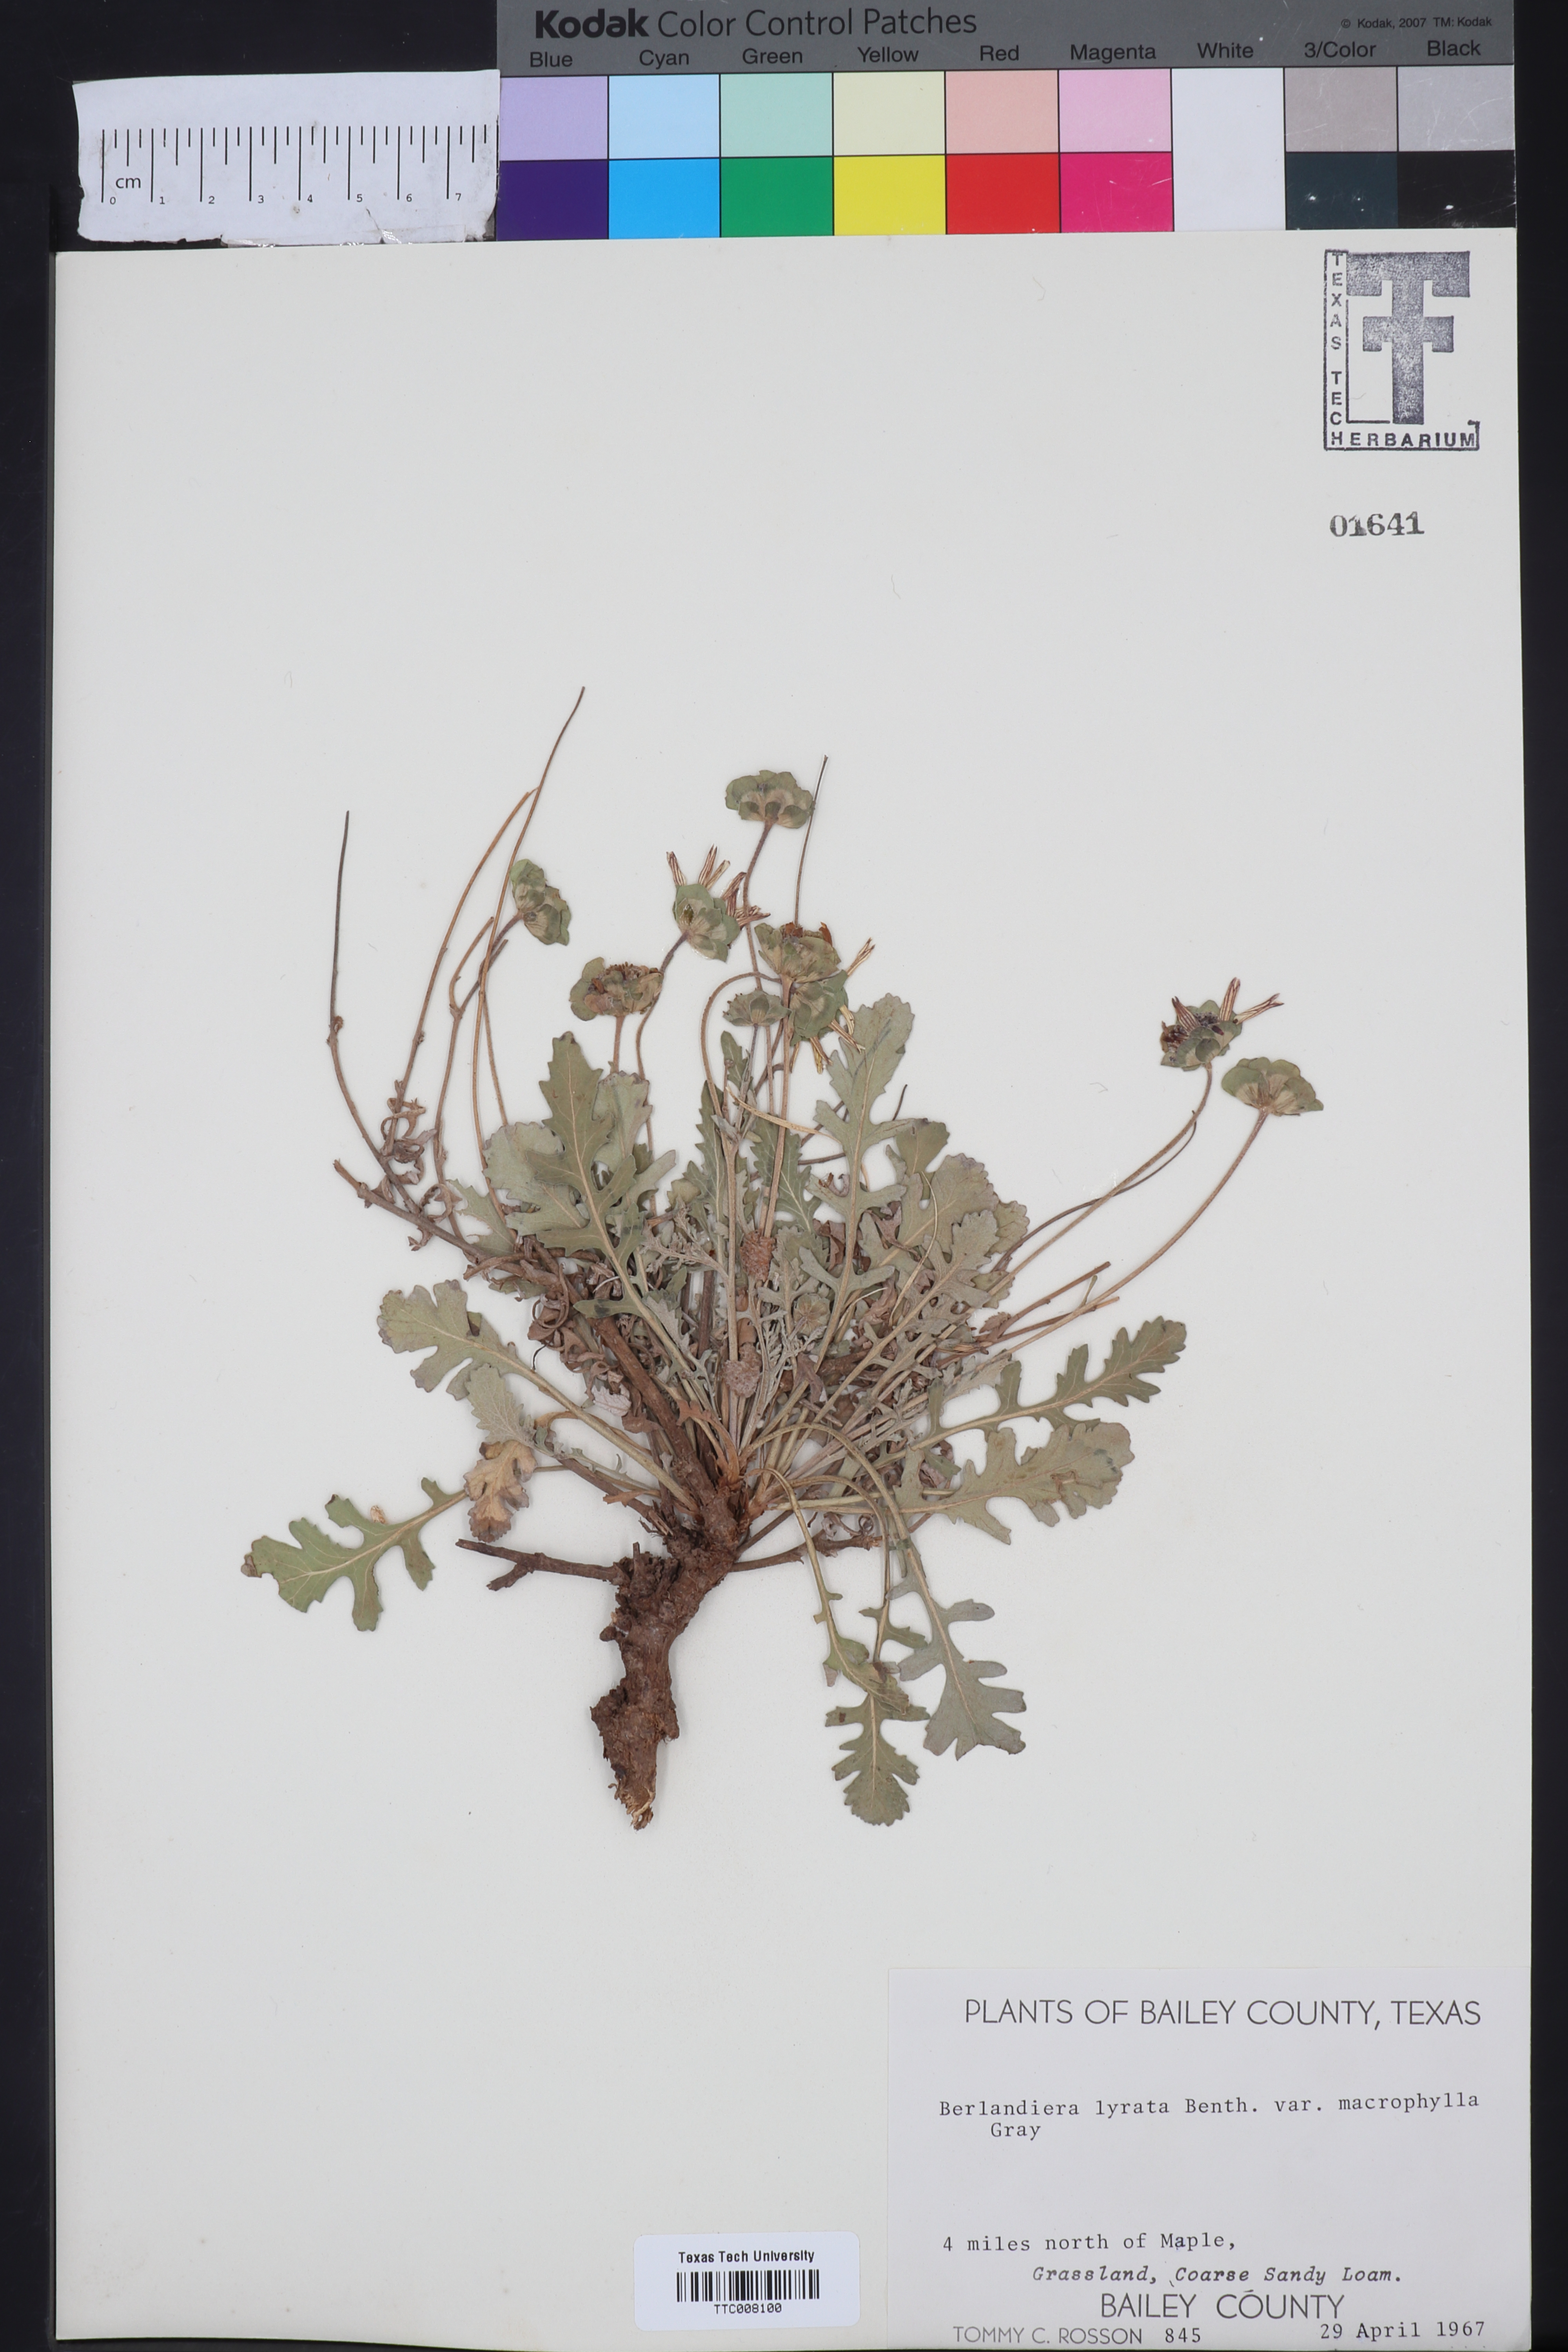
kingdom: Plantae
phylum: Tracheophyta
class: Magnoliopsida
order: Asterales
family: Asteraceae
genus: Berlandiera
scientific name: Berlandiera macrophylla
